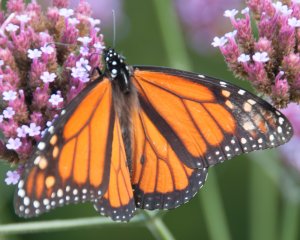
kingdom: Animalia
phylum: Arthropoda
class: Insecta
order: Lepidoptera
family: Nymphalidae
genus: Danaus
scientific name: Danaus plexippus
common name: Monarch
